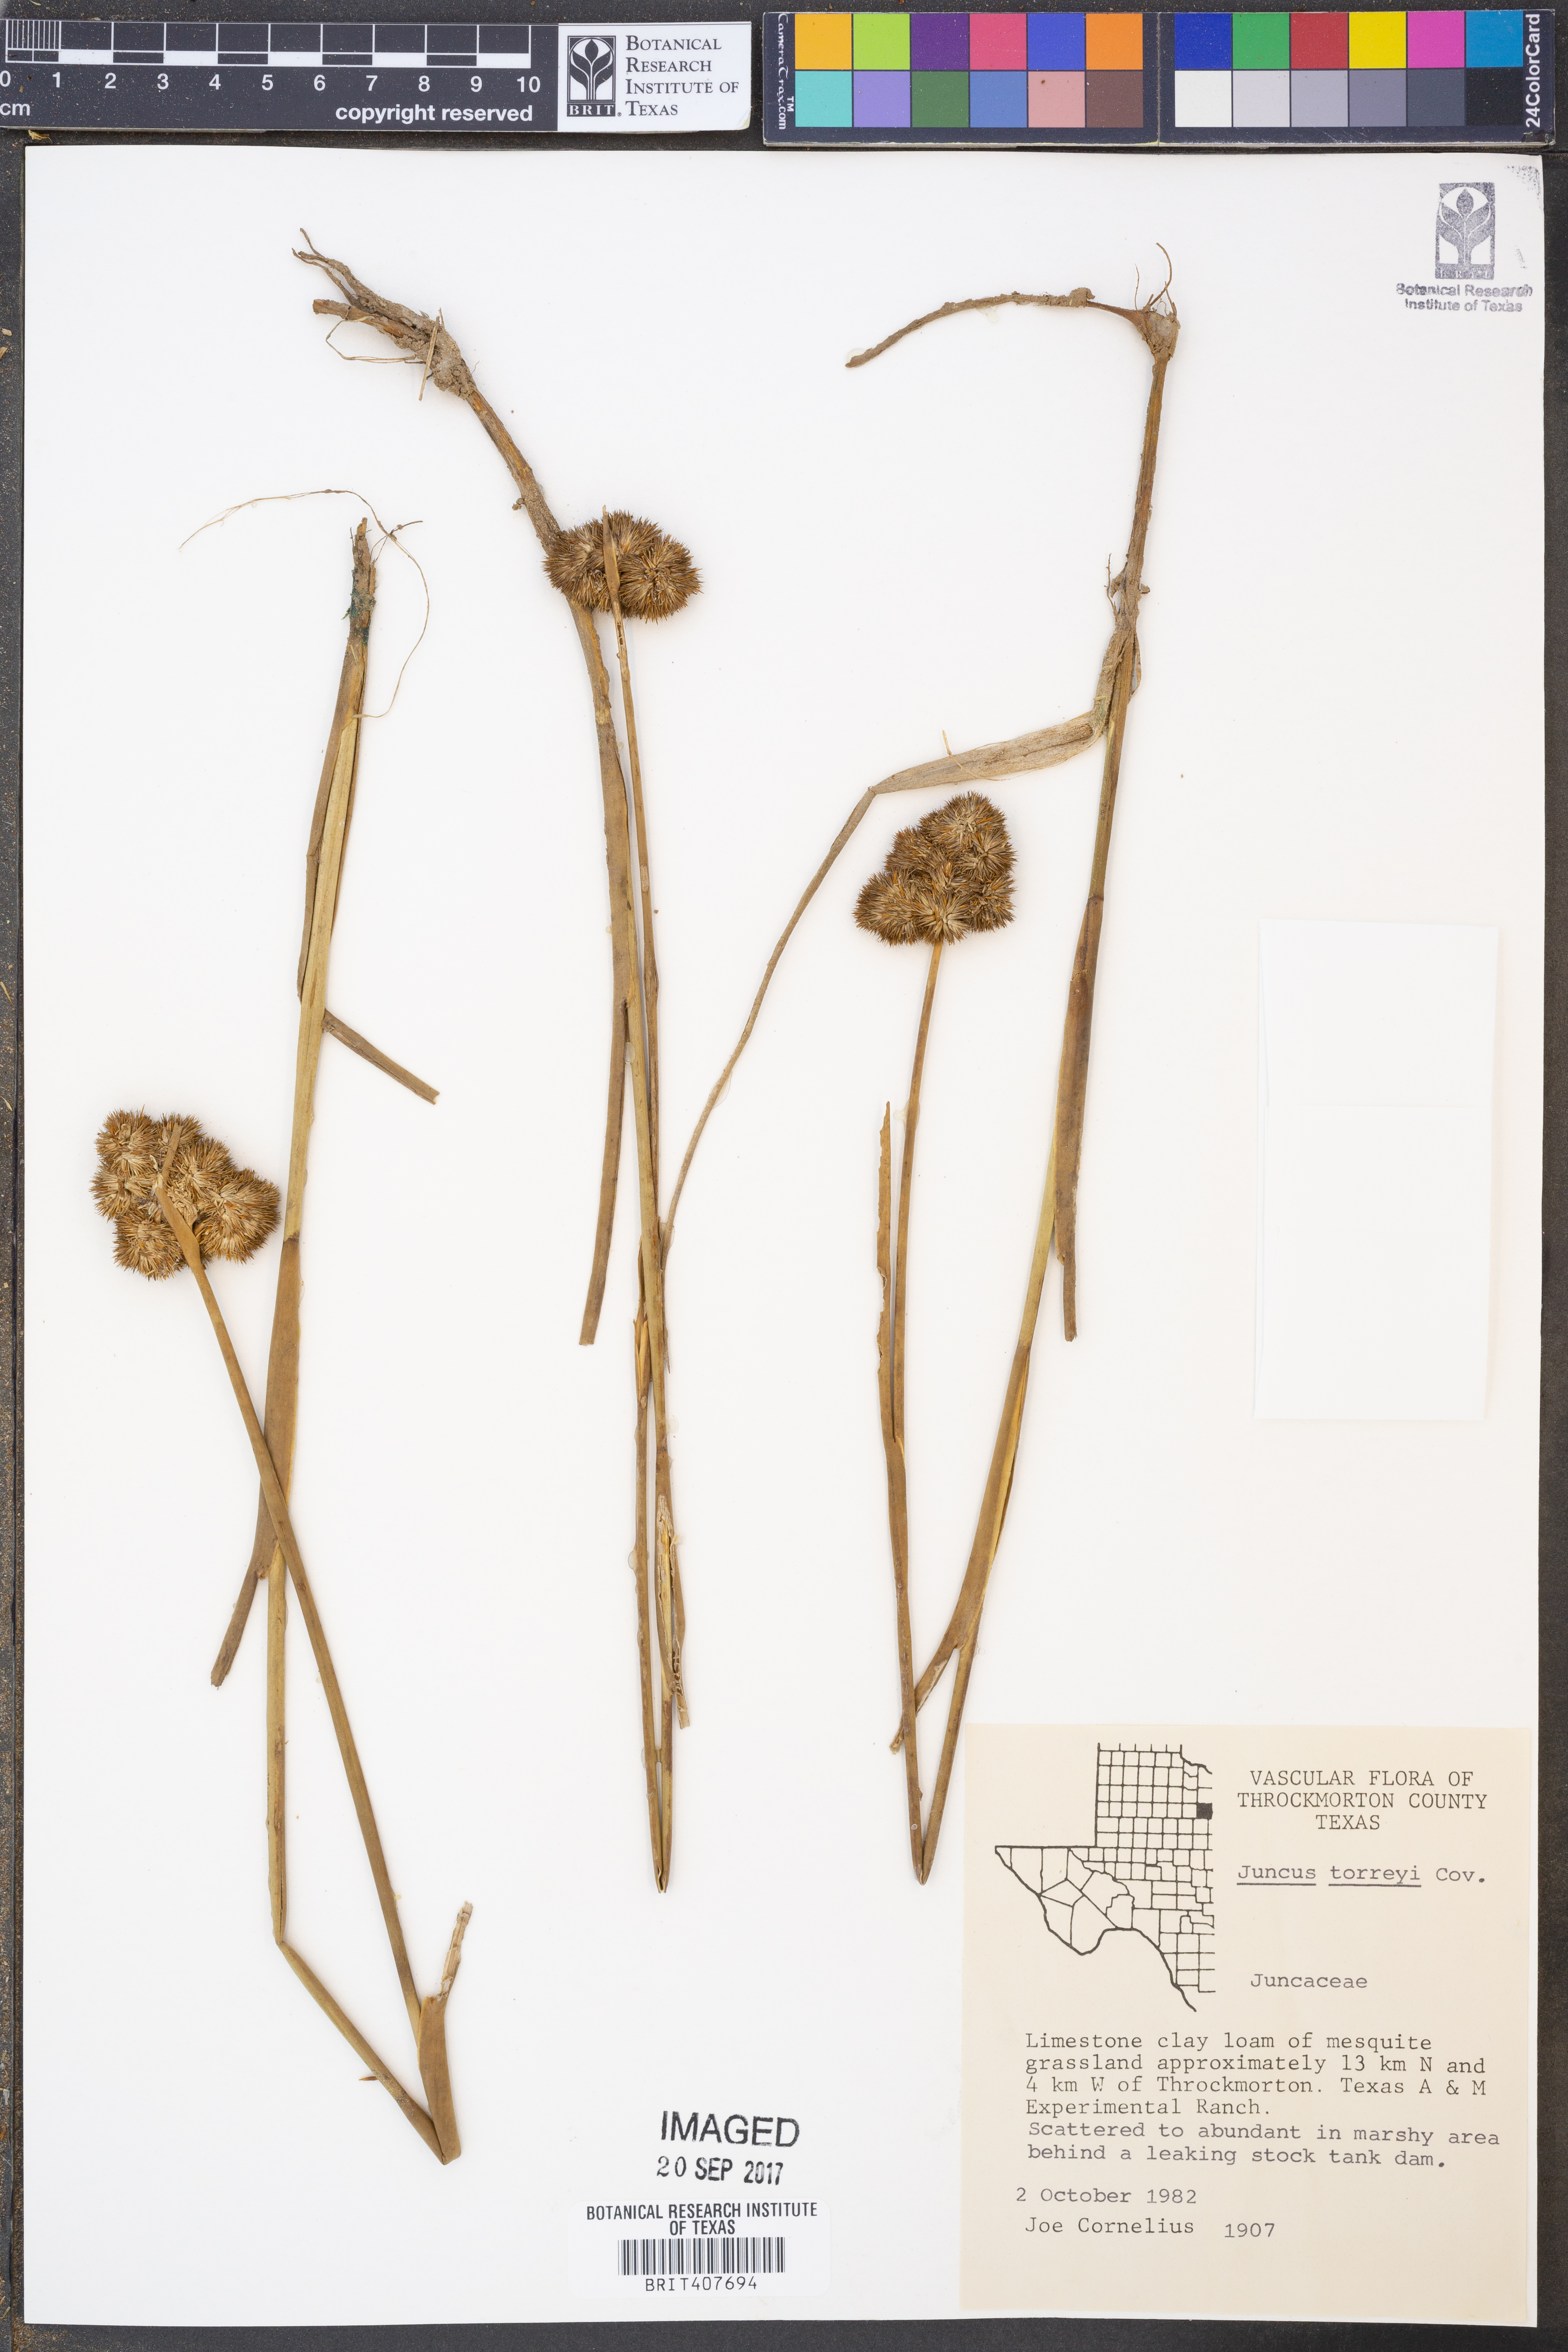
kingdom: Plantae
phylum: Tracheophyta
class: Liliopsida
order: Poales
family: Juncaceae
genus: Juncus
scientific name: Juncus torreyi
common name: Torrey's rush
